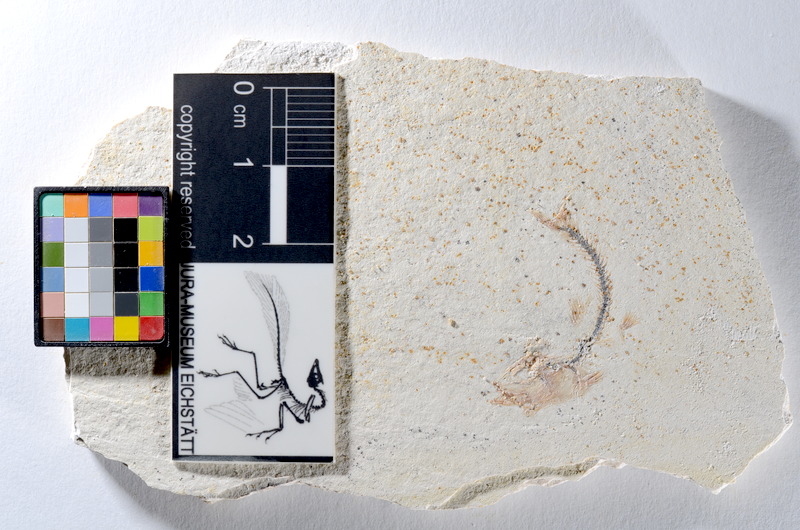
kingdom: Animalia
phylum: Chordata
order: Salmoniformes
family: Orthogonikleithridae
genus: Orthogonikleithrus
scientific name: Orthogonikleithrus hoelli
